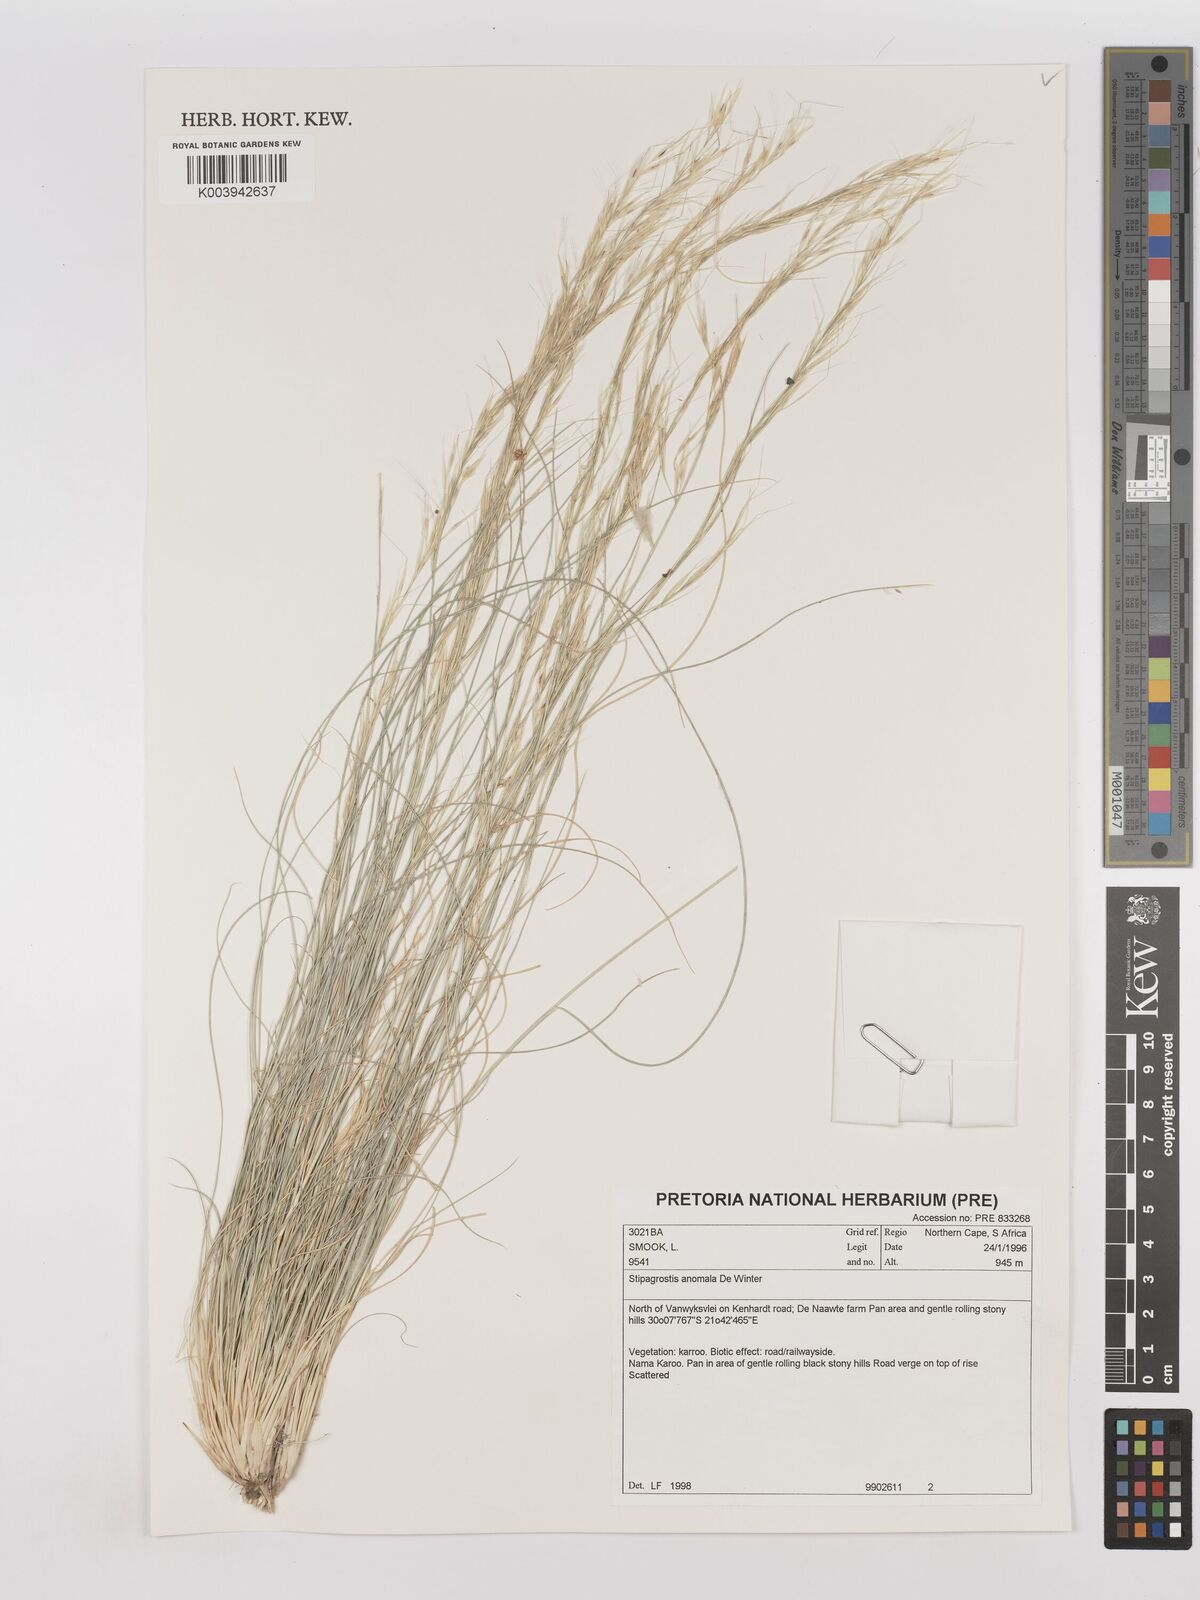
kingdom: Plantae
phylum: Tracheophyta
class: Liliopsida
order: Poales
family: Poaceae
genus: Stipagrostis
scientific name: Stipagrostis anomala
